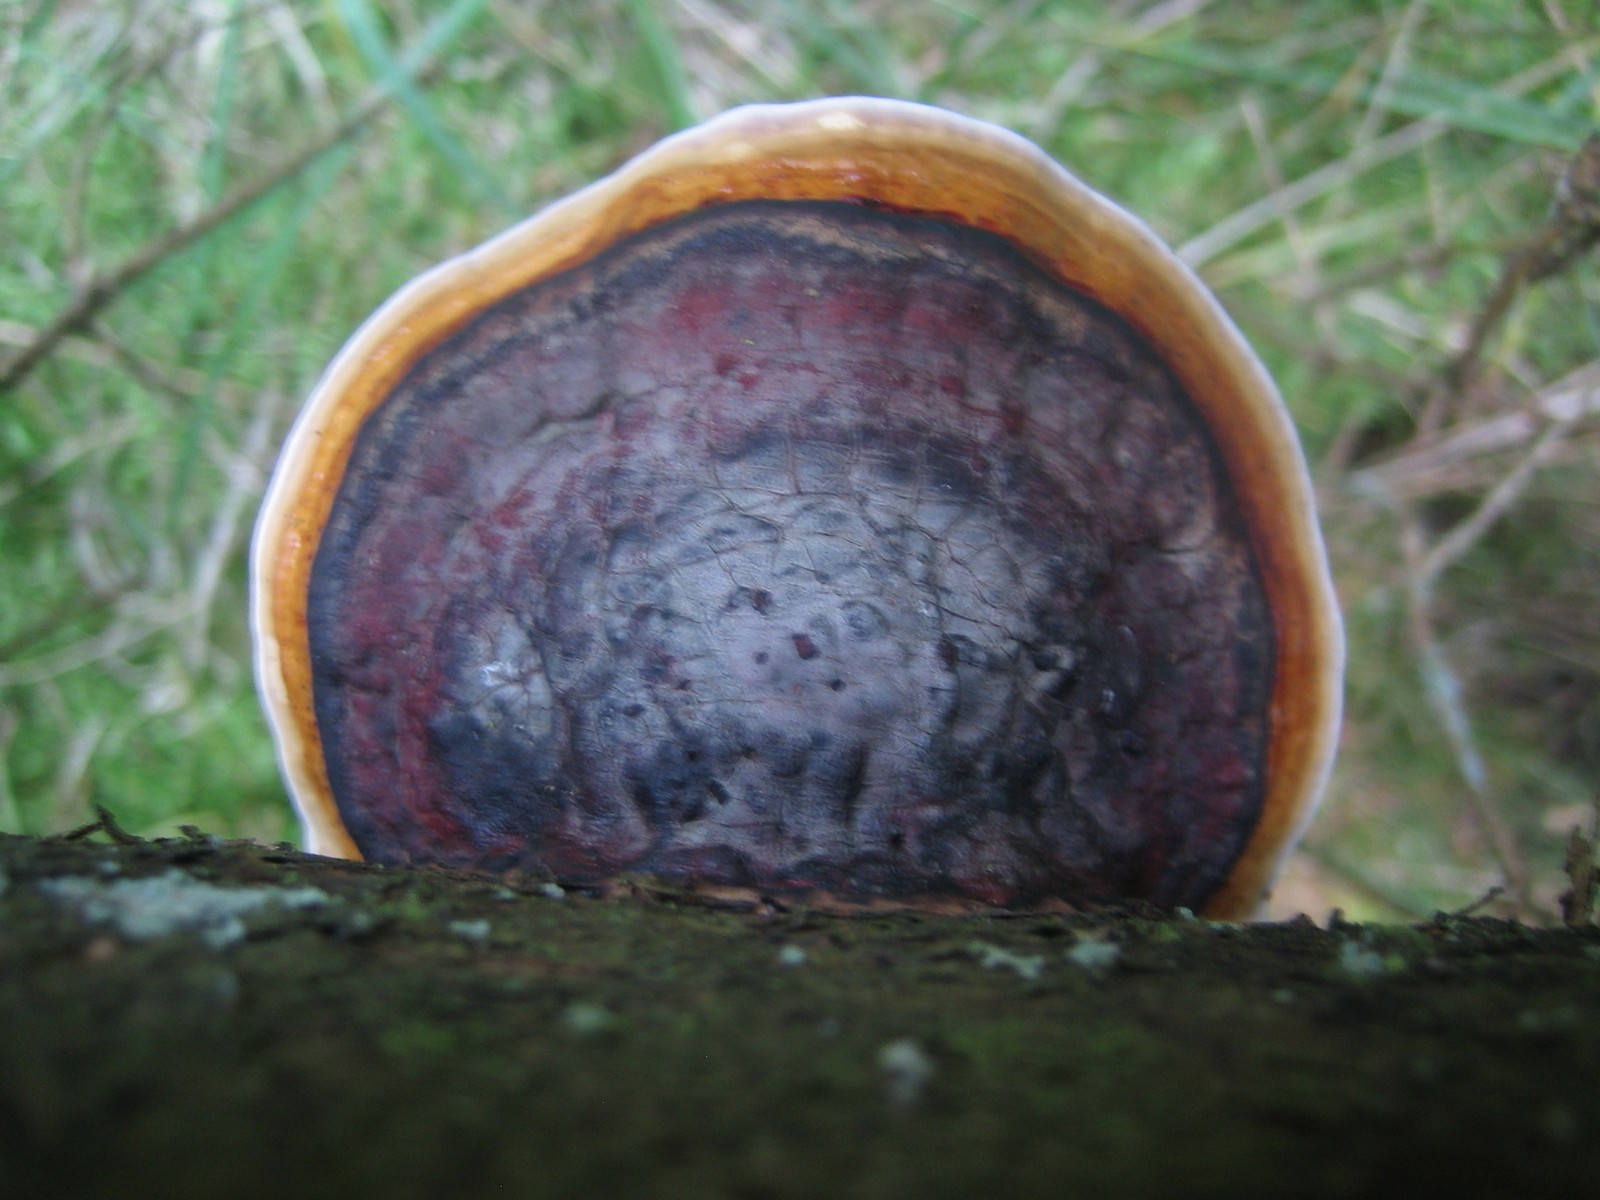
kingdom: Fungi
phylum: Basidiomycota
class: Agaricomycetes
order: Polyporales
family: Fomitopsidaceae
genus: Fomitopsis
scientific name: Fomitopsis pinicola
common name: randbæltet hovporesvamp
